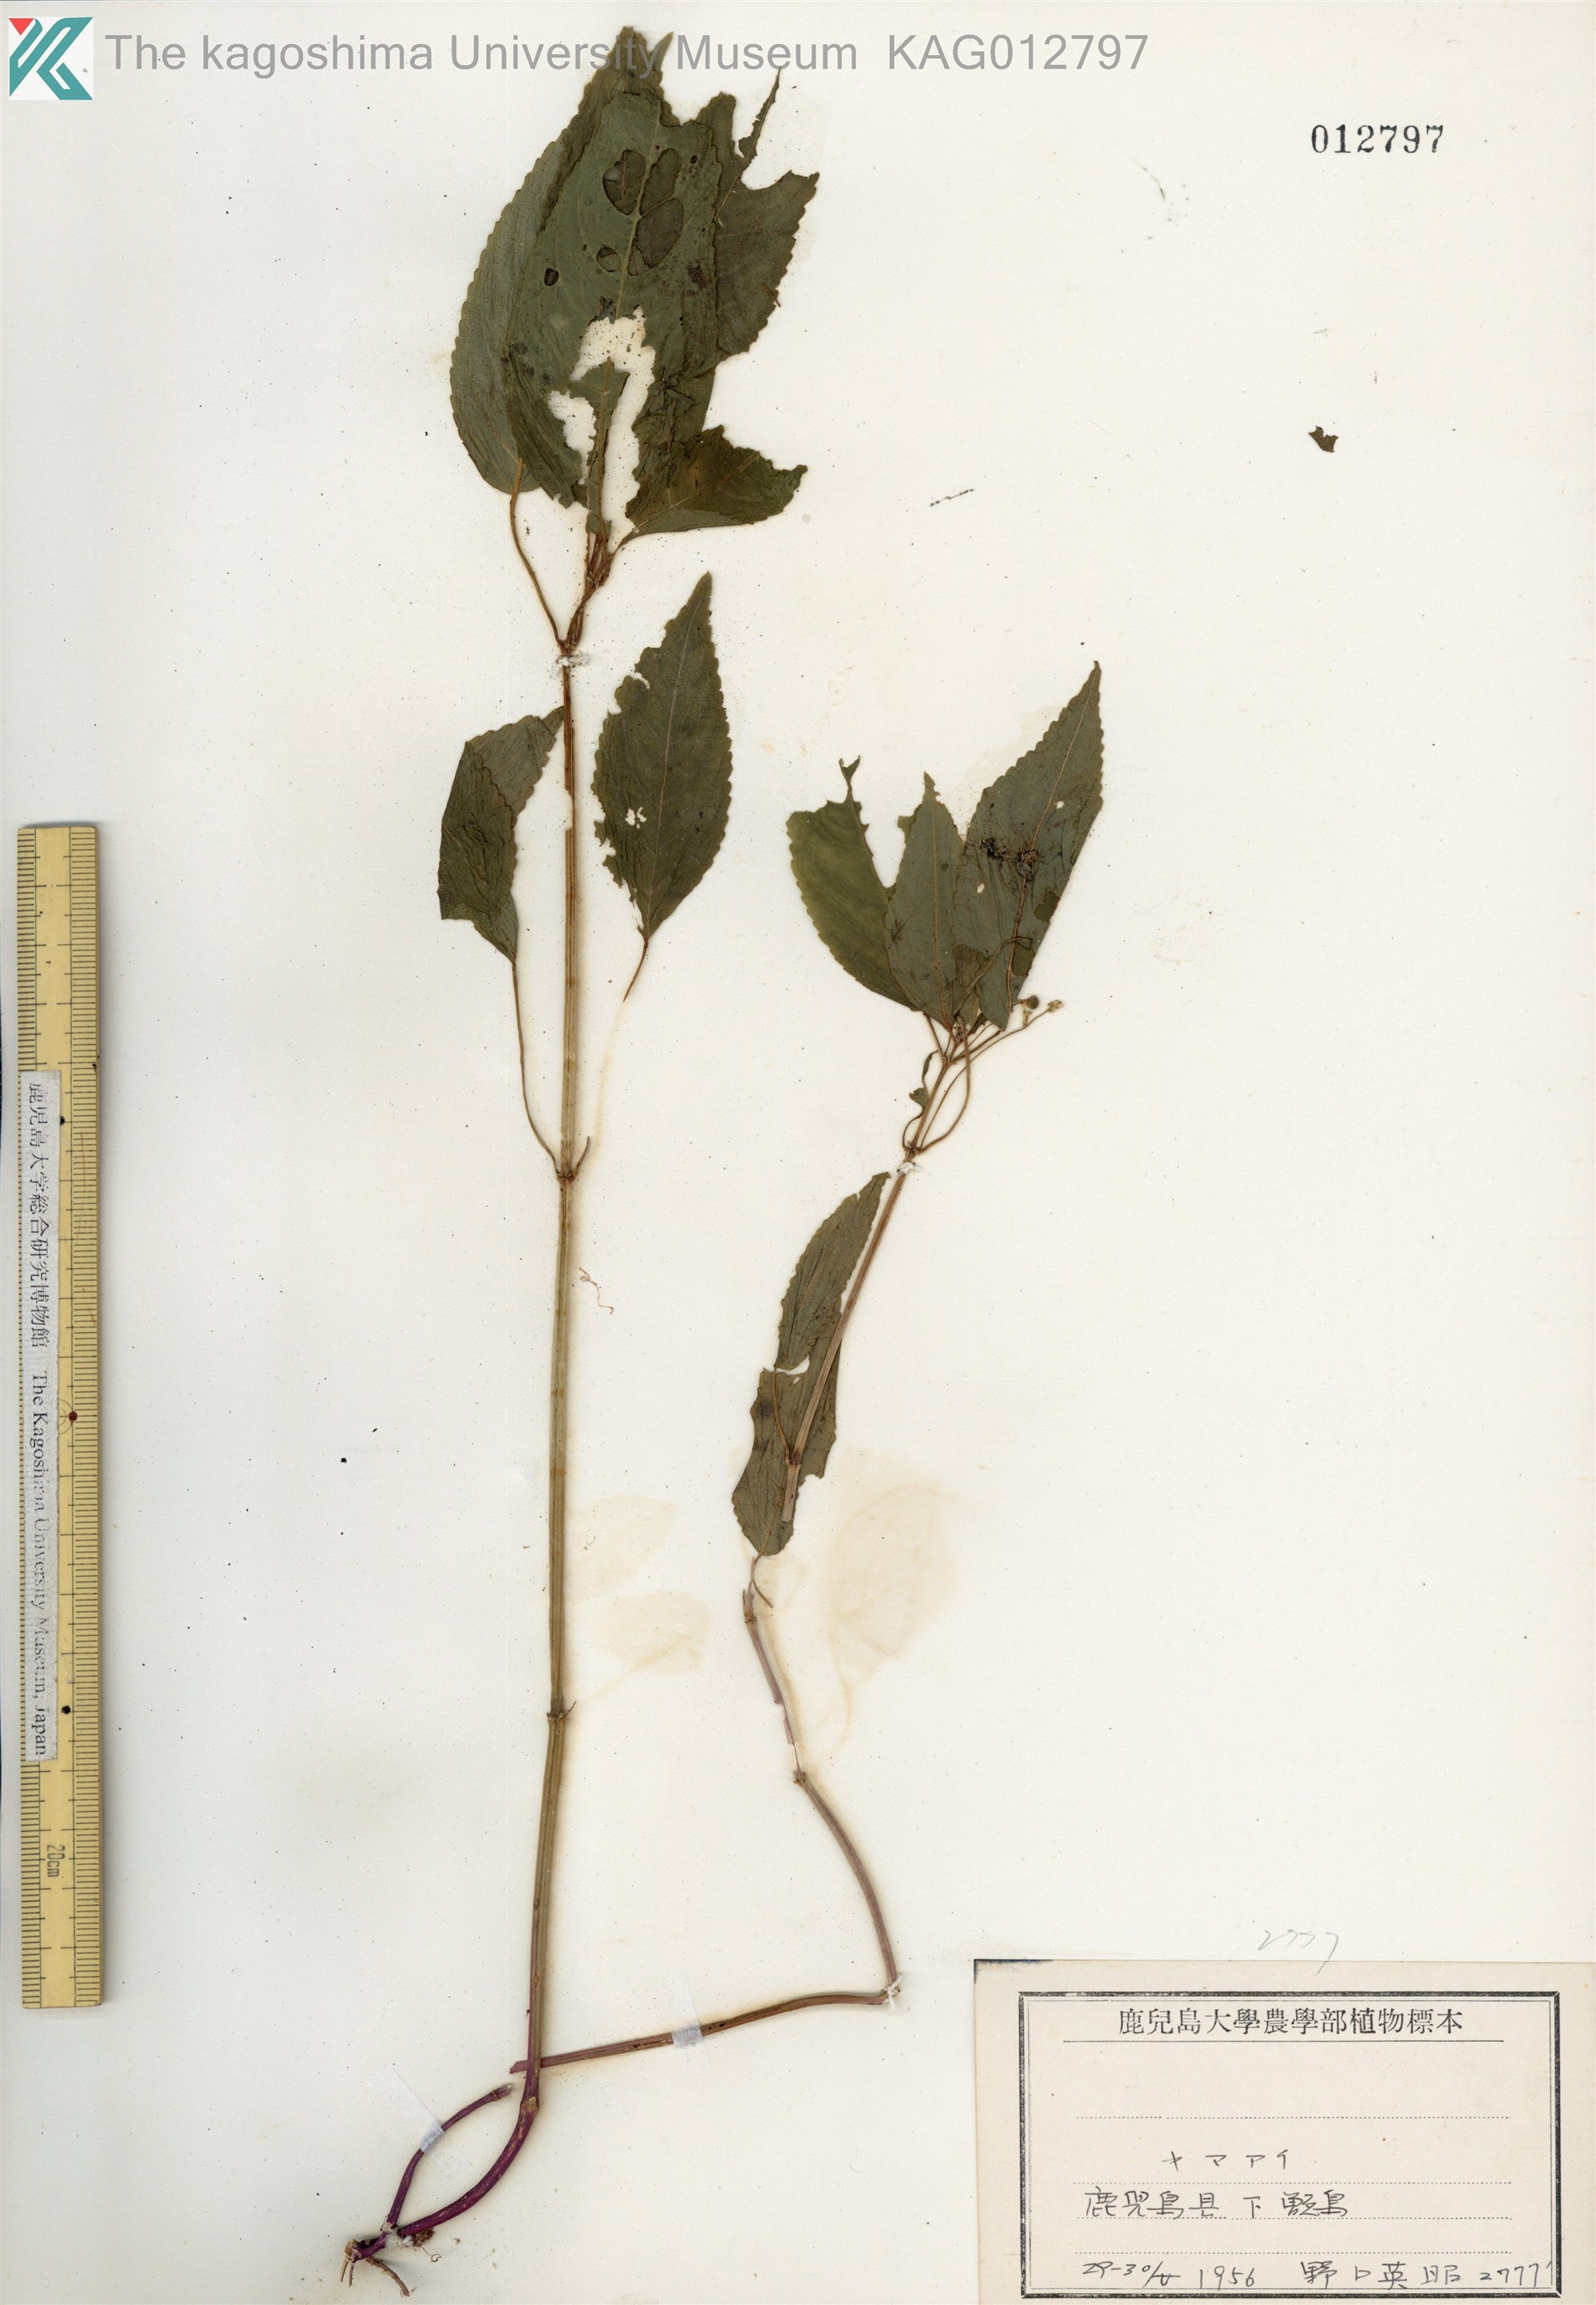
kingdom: Plantae
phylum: Tracheophyta
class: Magnoliopsida
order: Malpighiales
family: Euphorbiaceae
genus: Mercurialis
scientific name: Mercurialis leiocarpa
